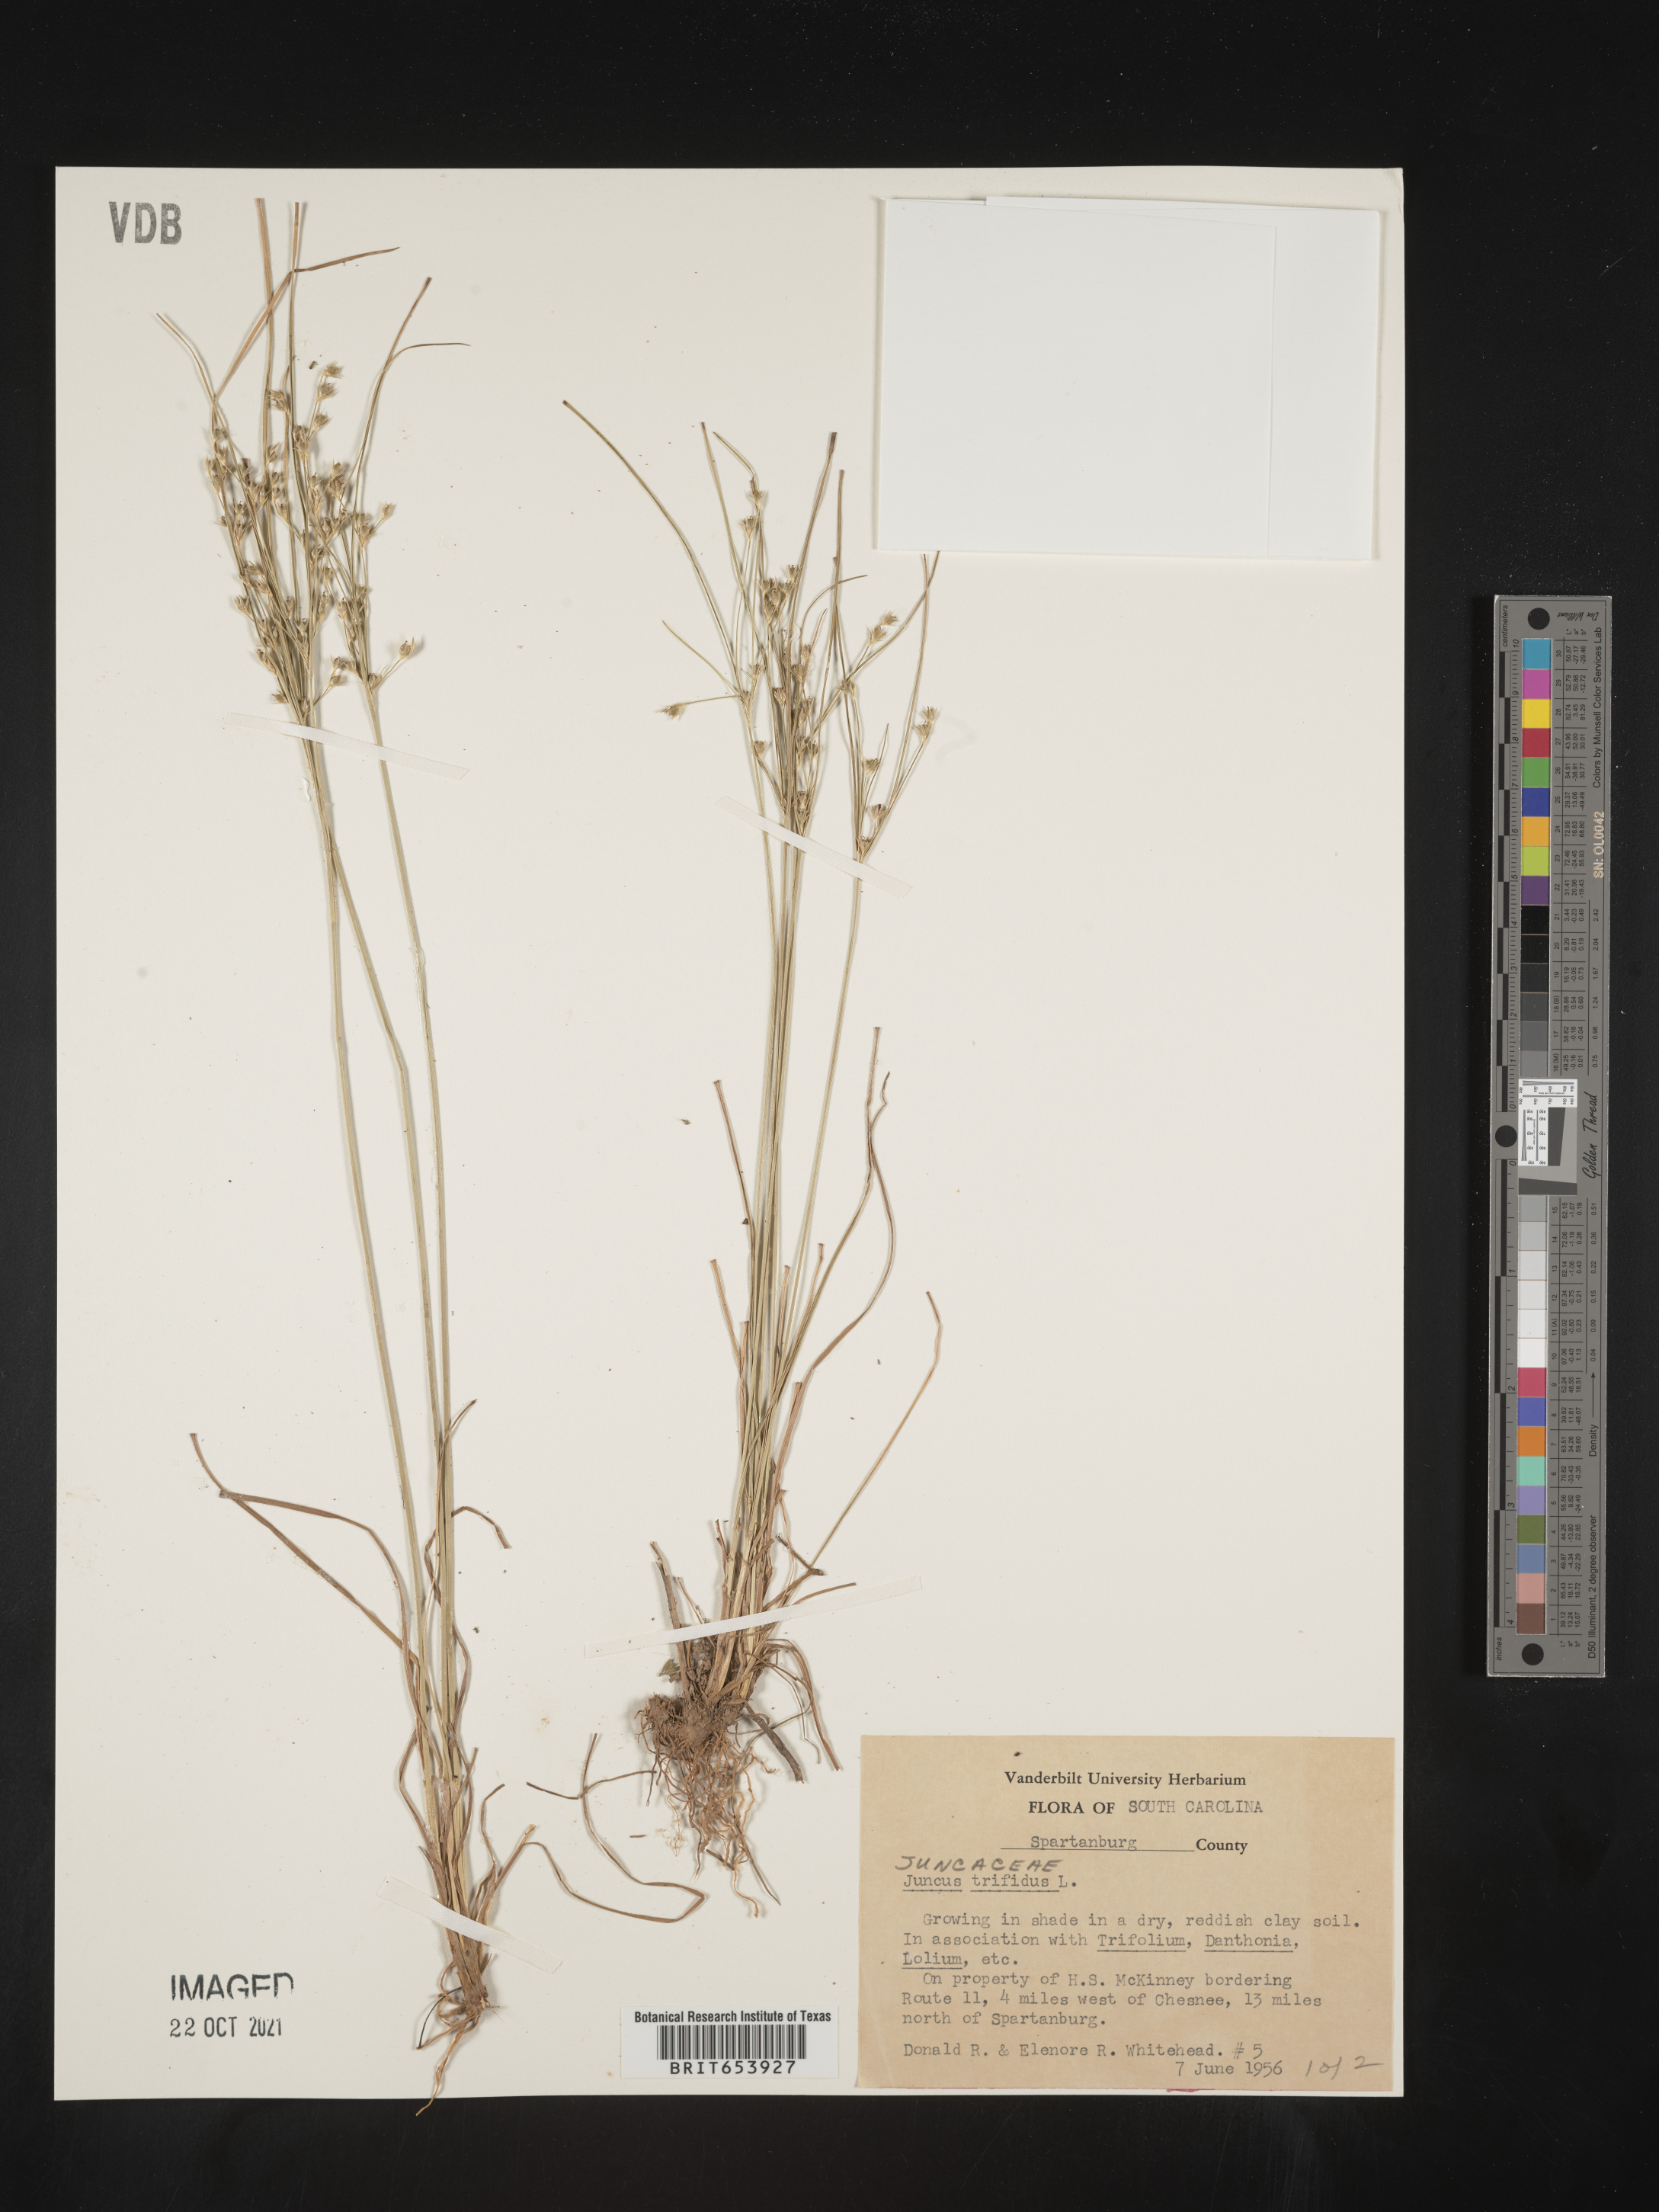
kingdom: Plantae
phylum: Tracheophyta
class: Liliopsida
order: Poales
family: Juncaceae
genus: Oreojuncus
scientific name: Oreojuncus trifidus
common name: Highland rush
